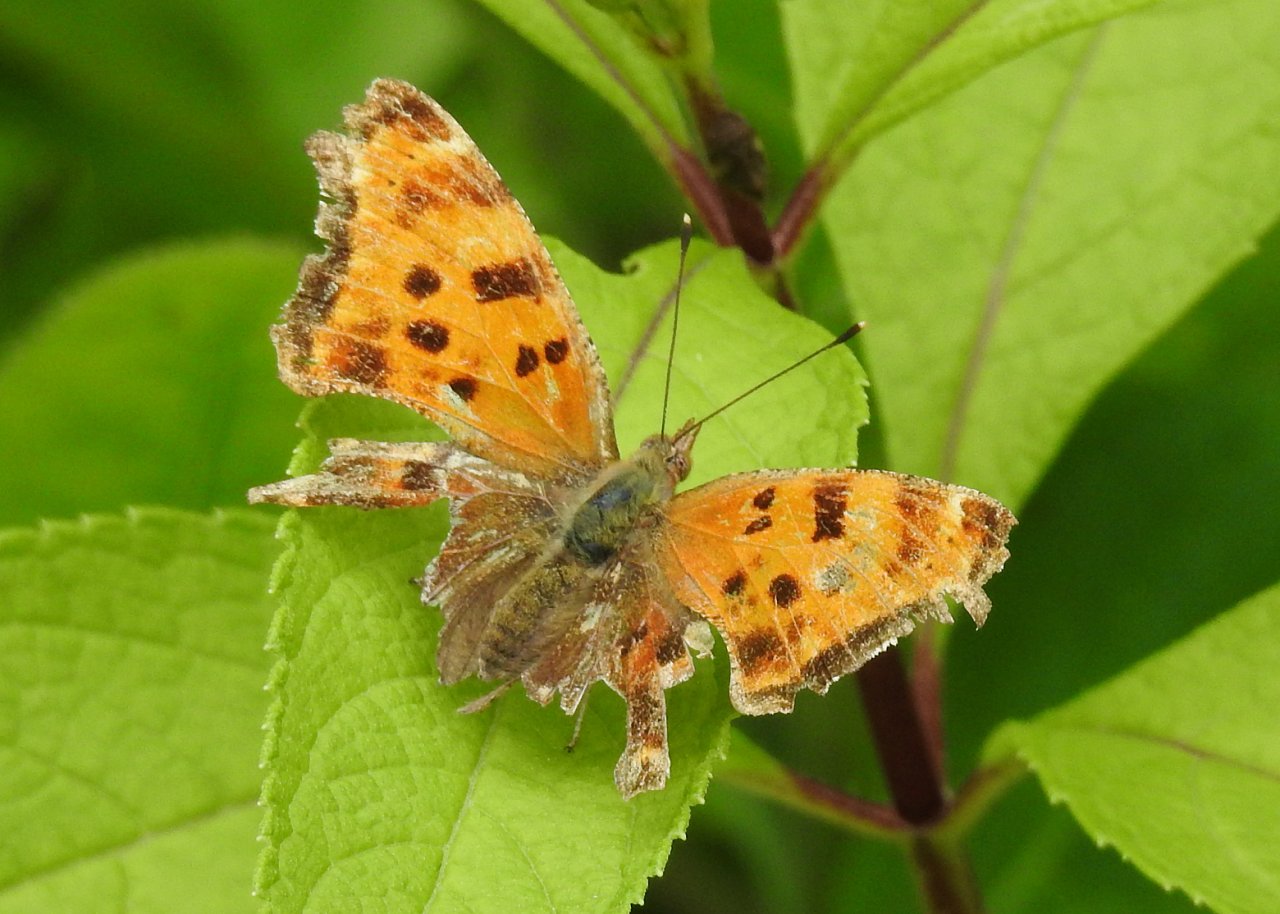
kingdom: Animalia
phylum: Arthropoda
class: Insecta
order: Lepidoptera
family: Nymphalidae
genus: Polygonia
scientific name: Polygonia
